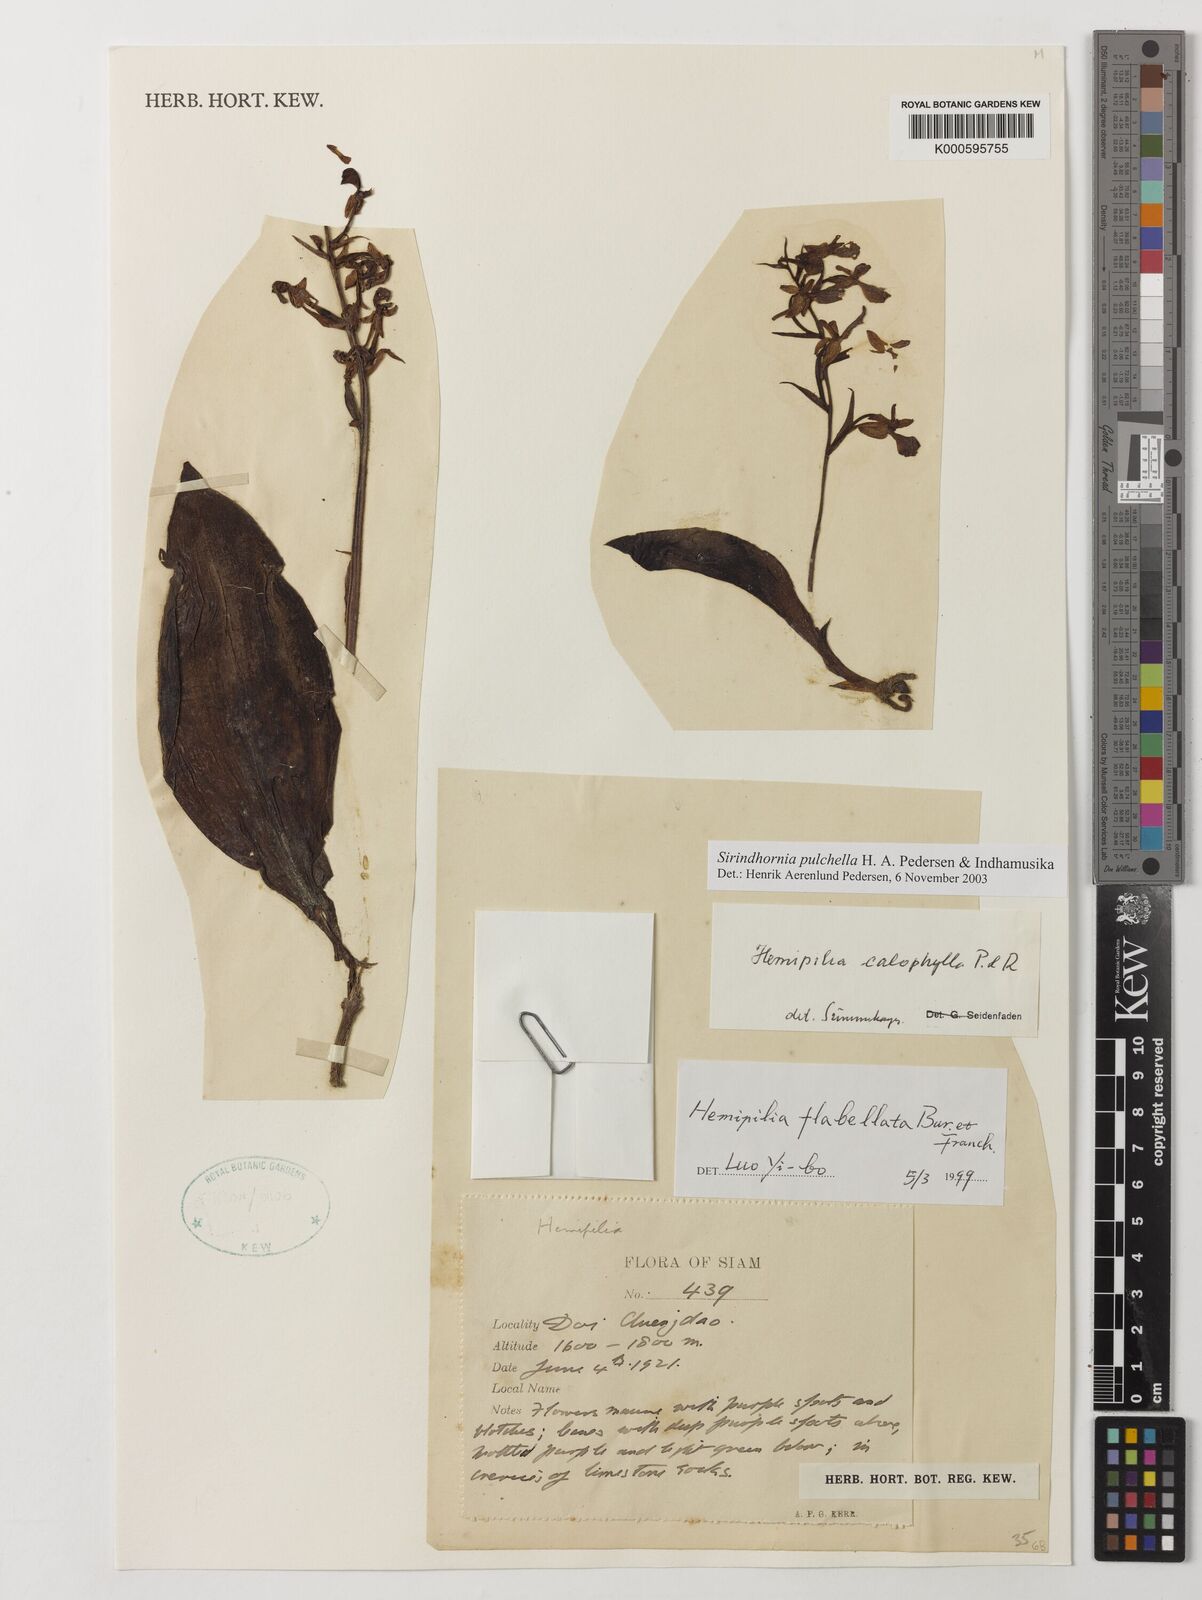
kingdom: Plantae
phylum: Tracheophyta
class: Liliopsida
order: Asparagales
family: Orchidaceae
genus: Sirindhornia
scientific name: Sirindhornia pulchella
